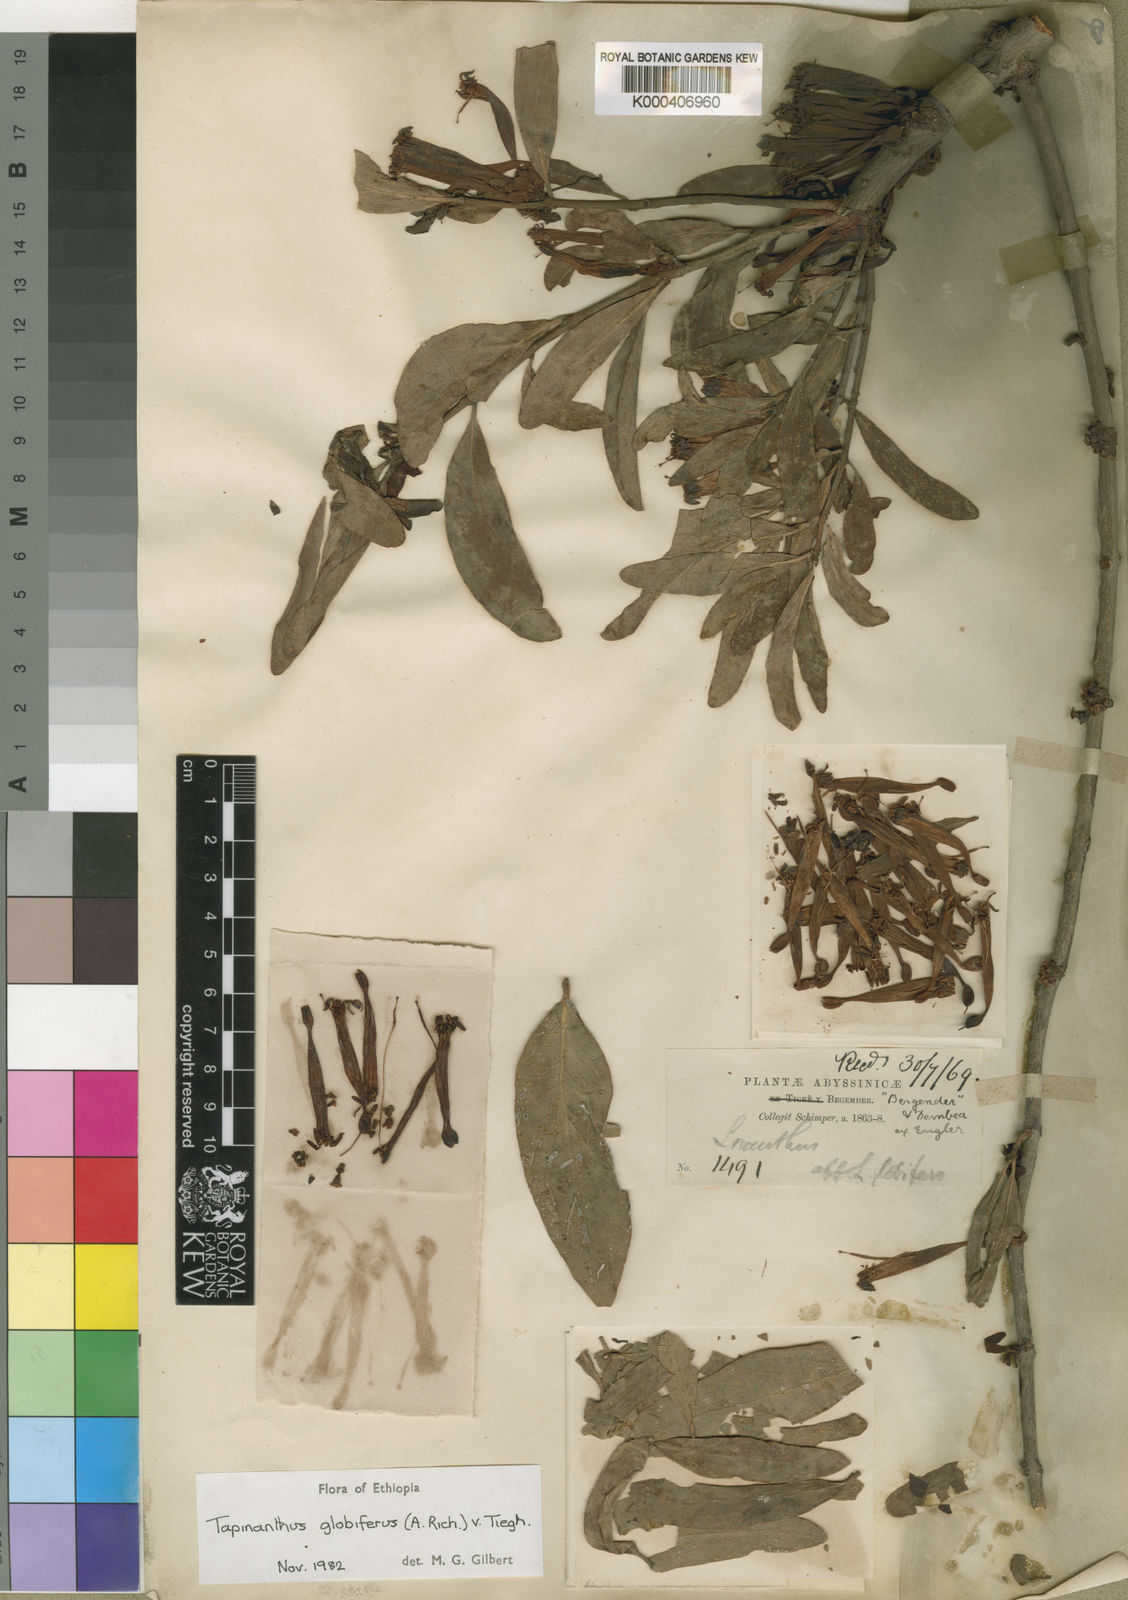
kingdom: Plantae
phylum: Tracheophyta
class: Magnoliopsida
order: Santalales
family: Loranthaceae
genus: Tapinanthus
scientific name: Tapinanthus
